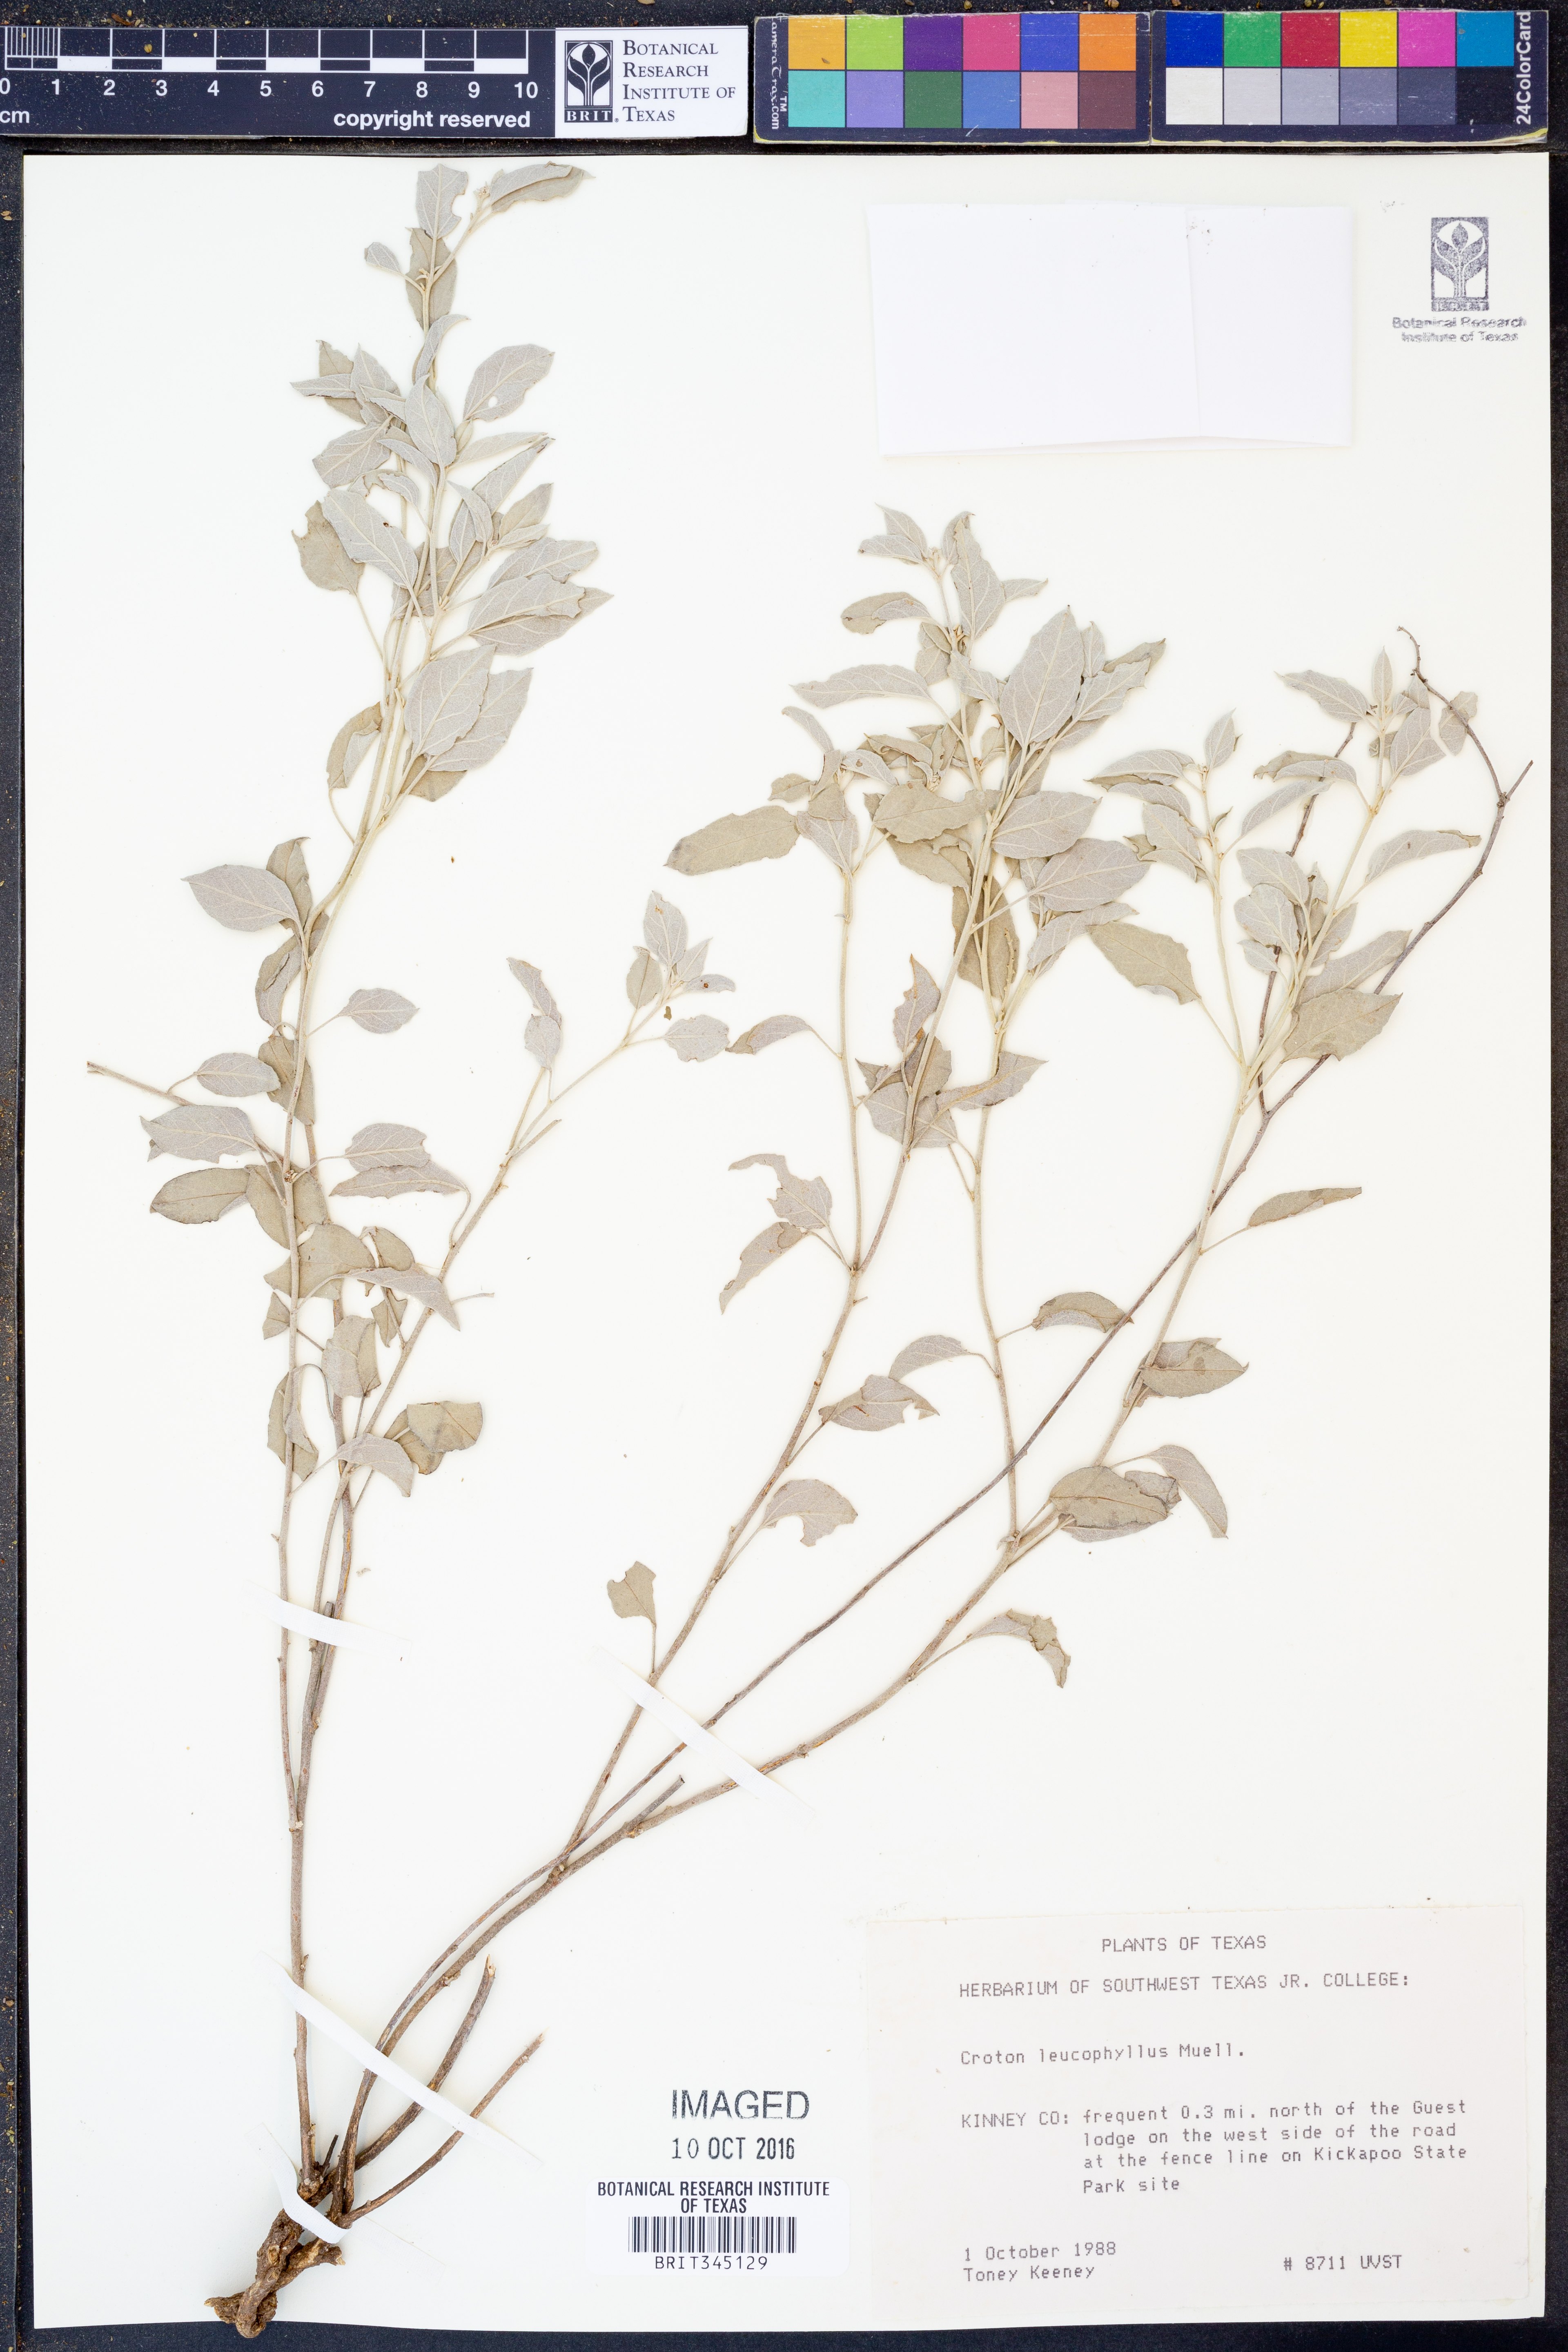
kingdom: Plantae
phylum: Tracheophyta
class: Magnoliopsida
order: Malpighiales
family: Euphorbiaceae
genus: Croton
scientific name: Croton leucophyllus
